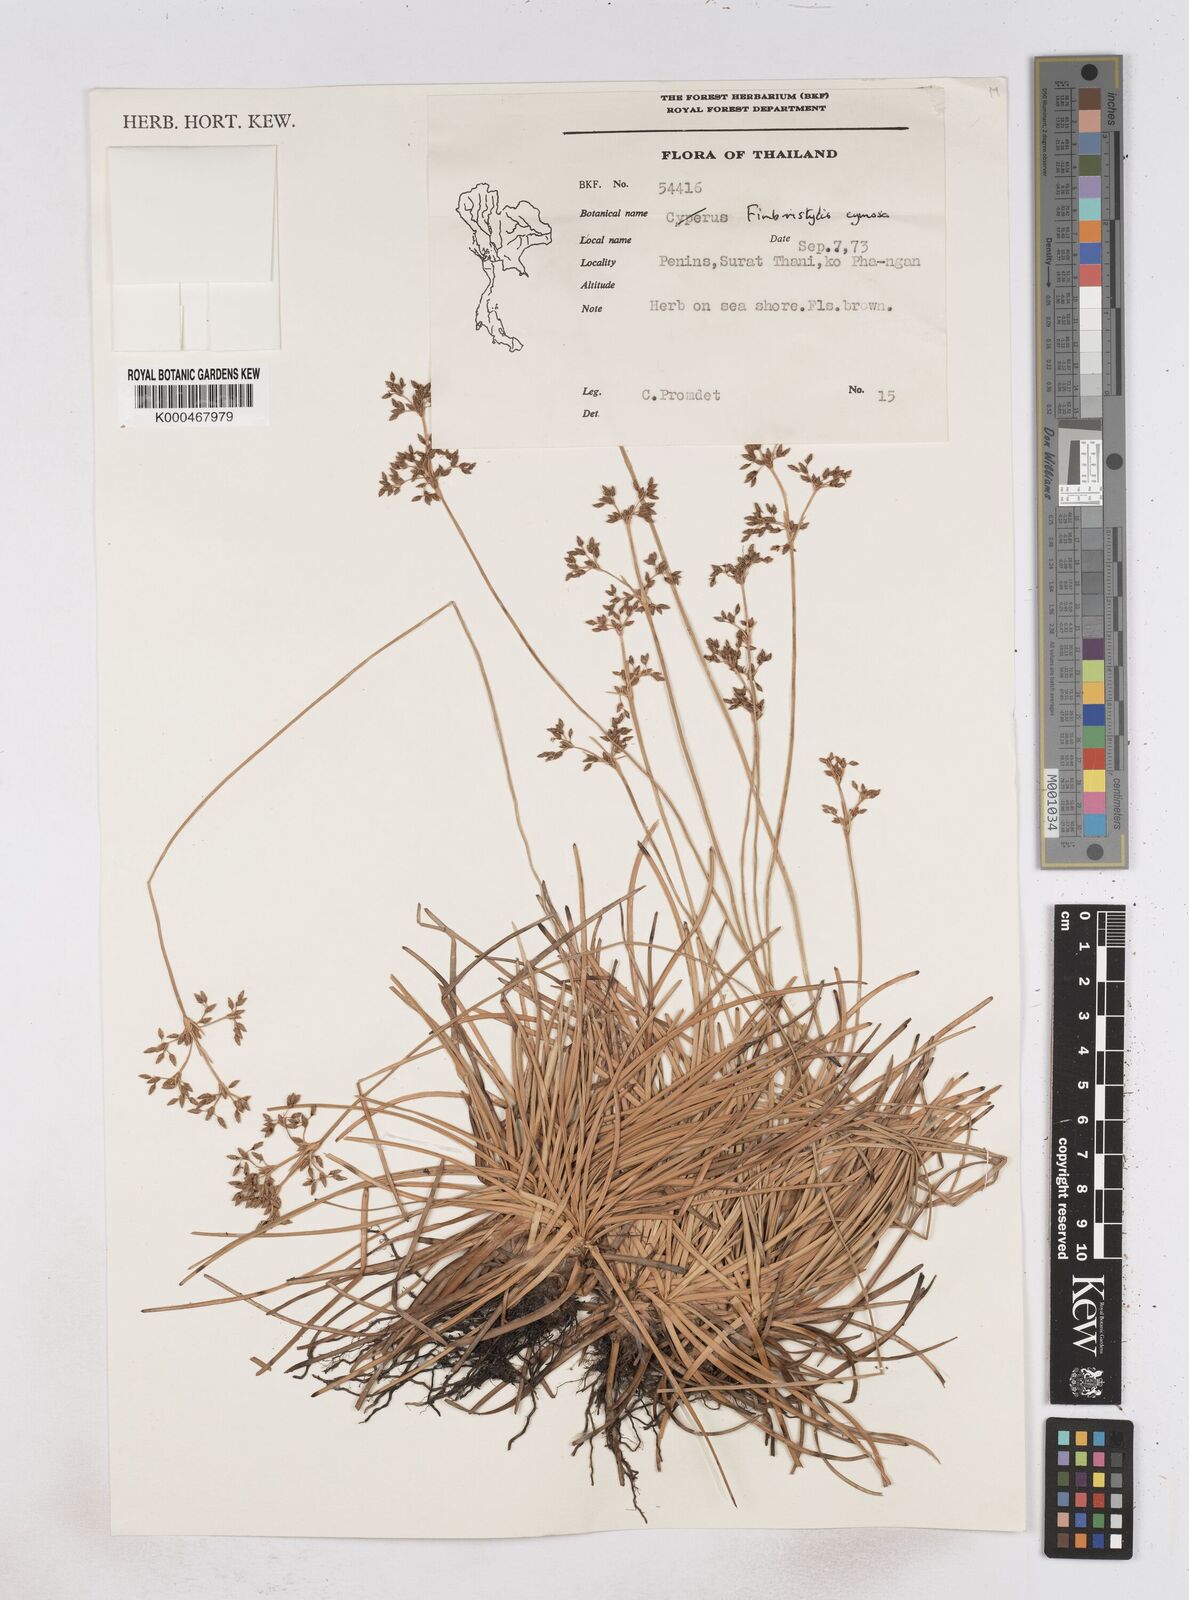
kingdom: Plantae
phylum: Tracheophyta
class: Liliopsida
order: Poales
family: Cyperaceae
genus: Fimbristylis
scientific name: Fimbristylis cymosa
